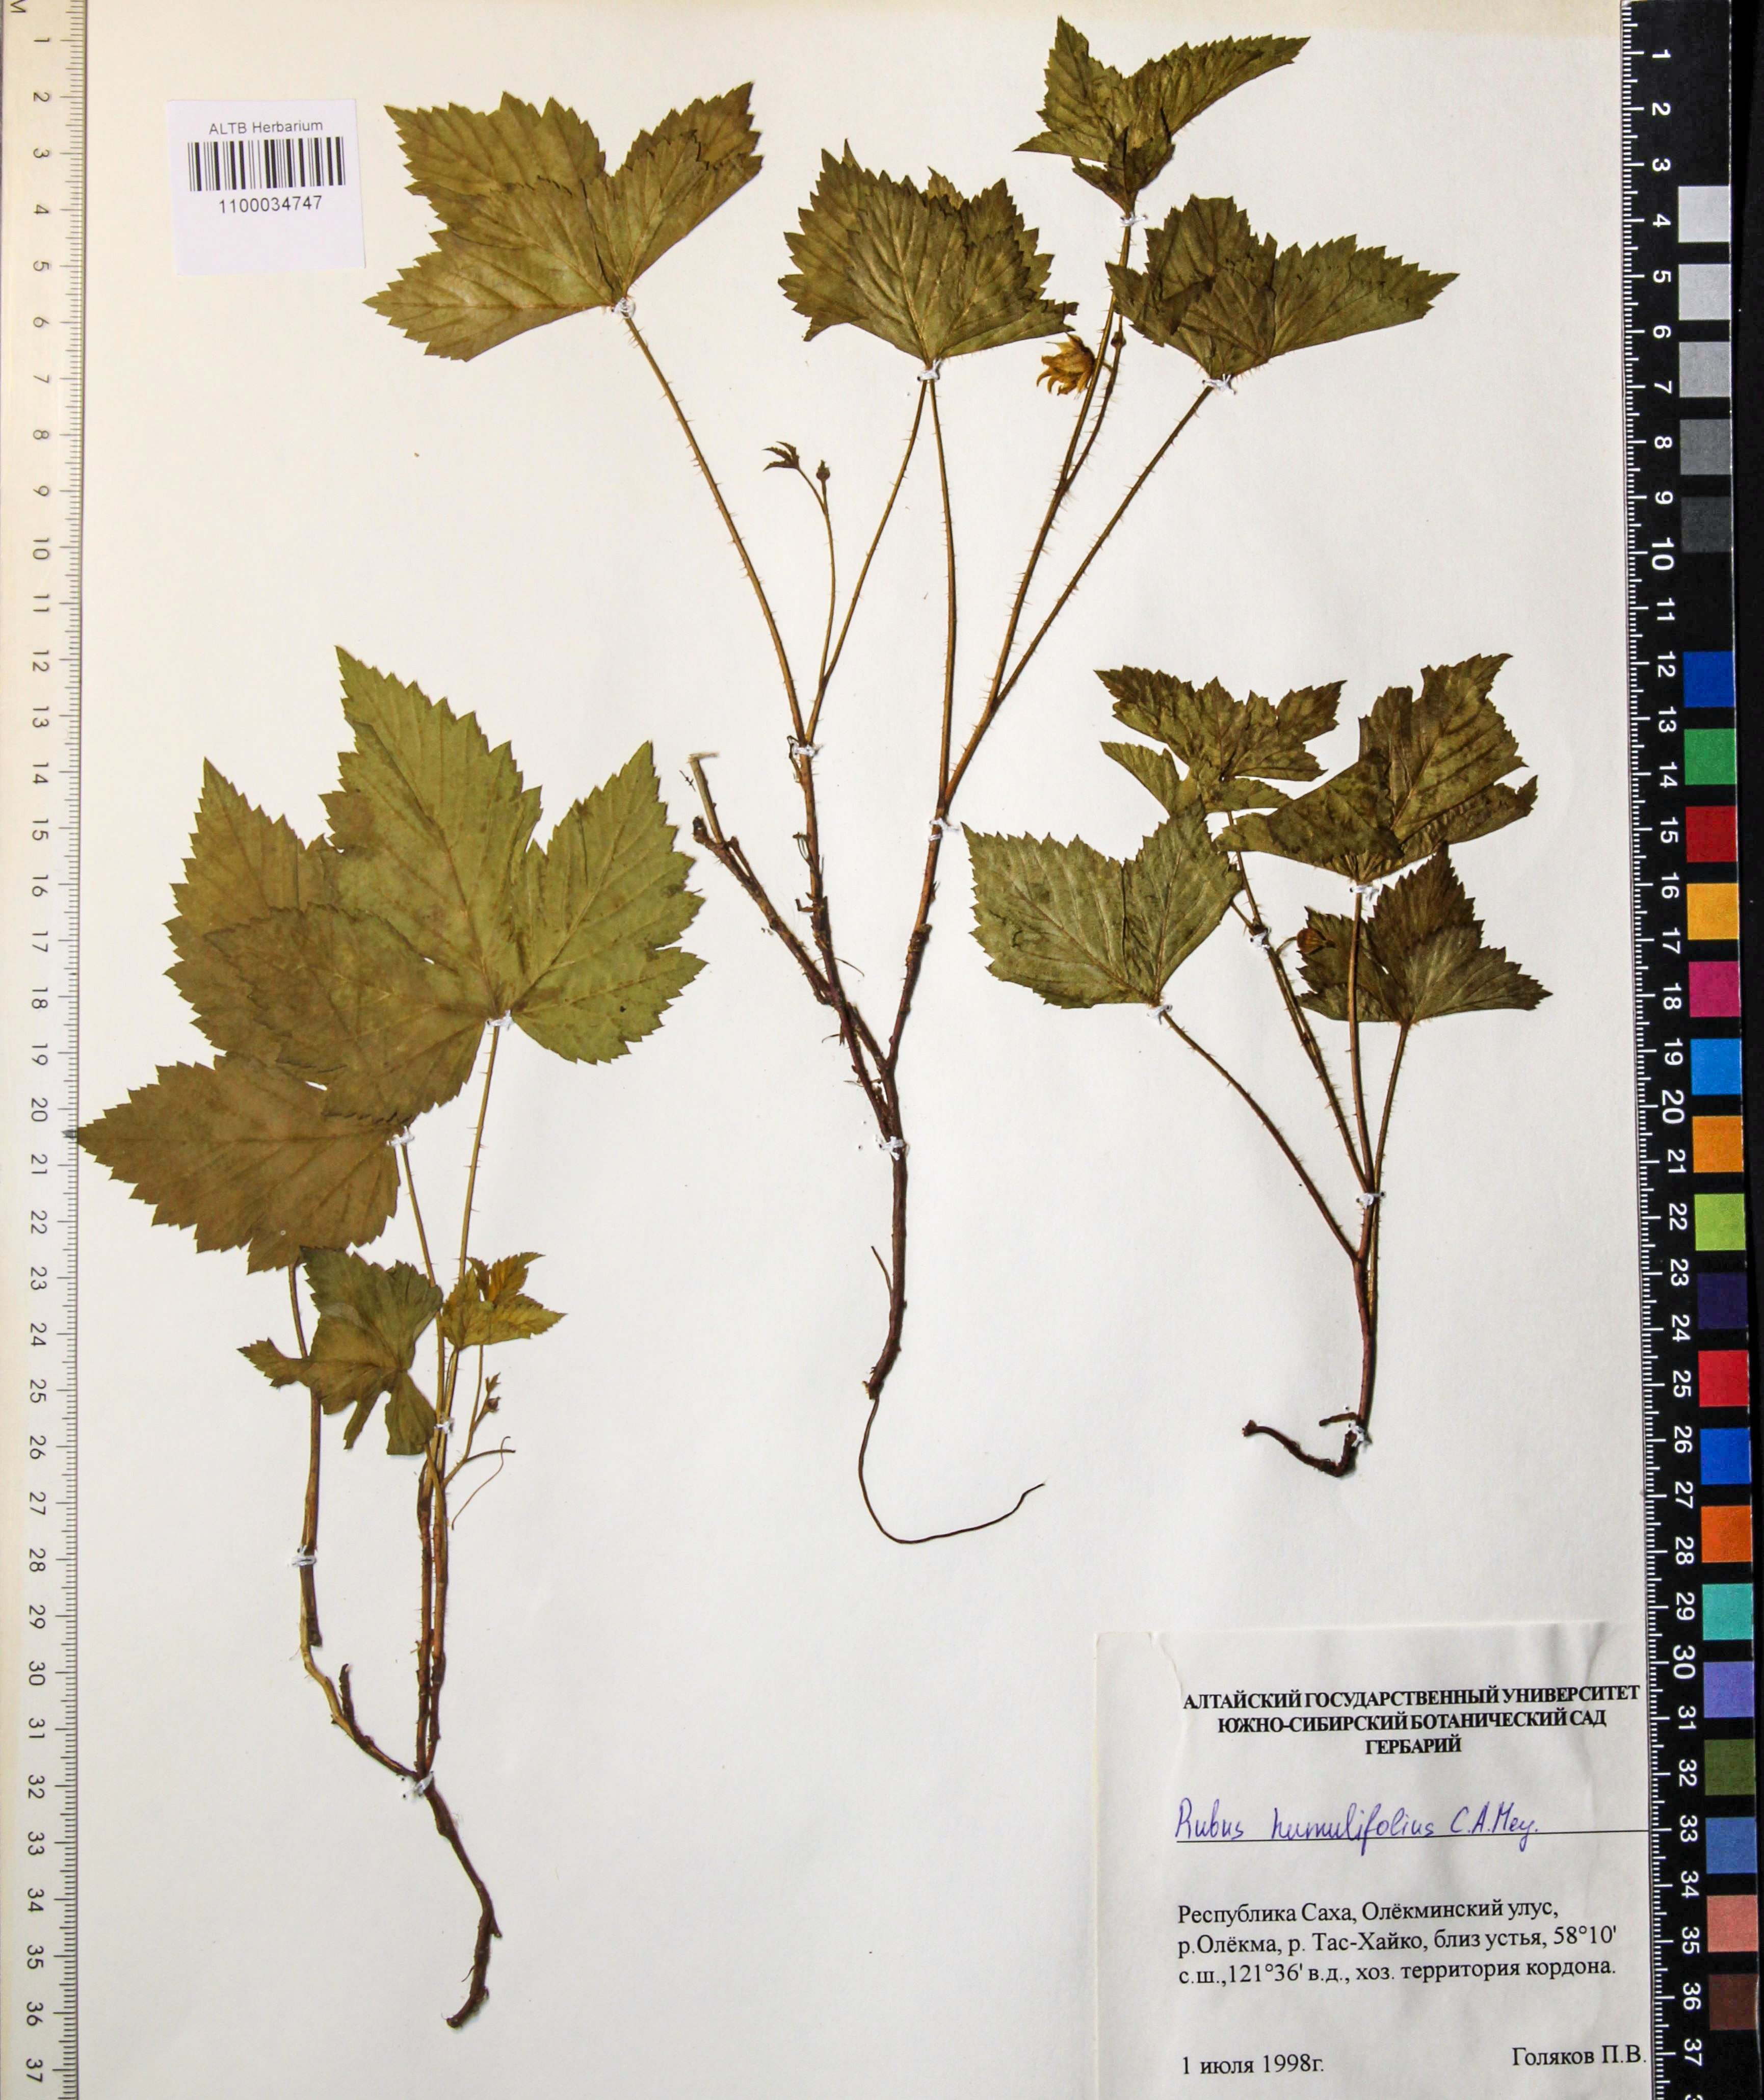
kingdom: Plantae
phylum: Tracheophyta
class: Magnoliopsida
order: Rosales
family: Rosaceae
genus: Rubus
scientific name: Rubus humilifolius
